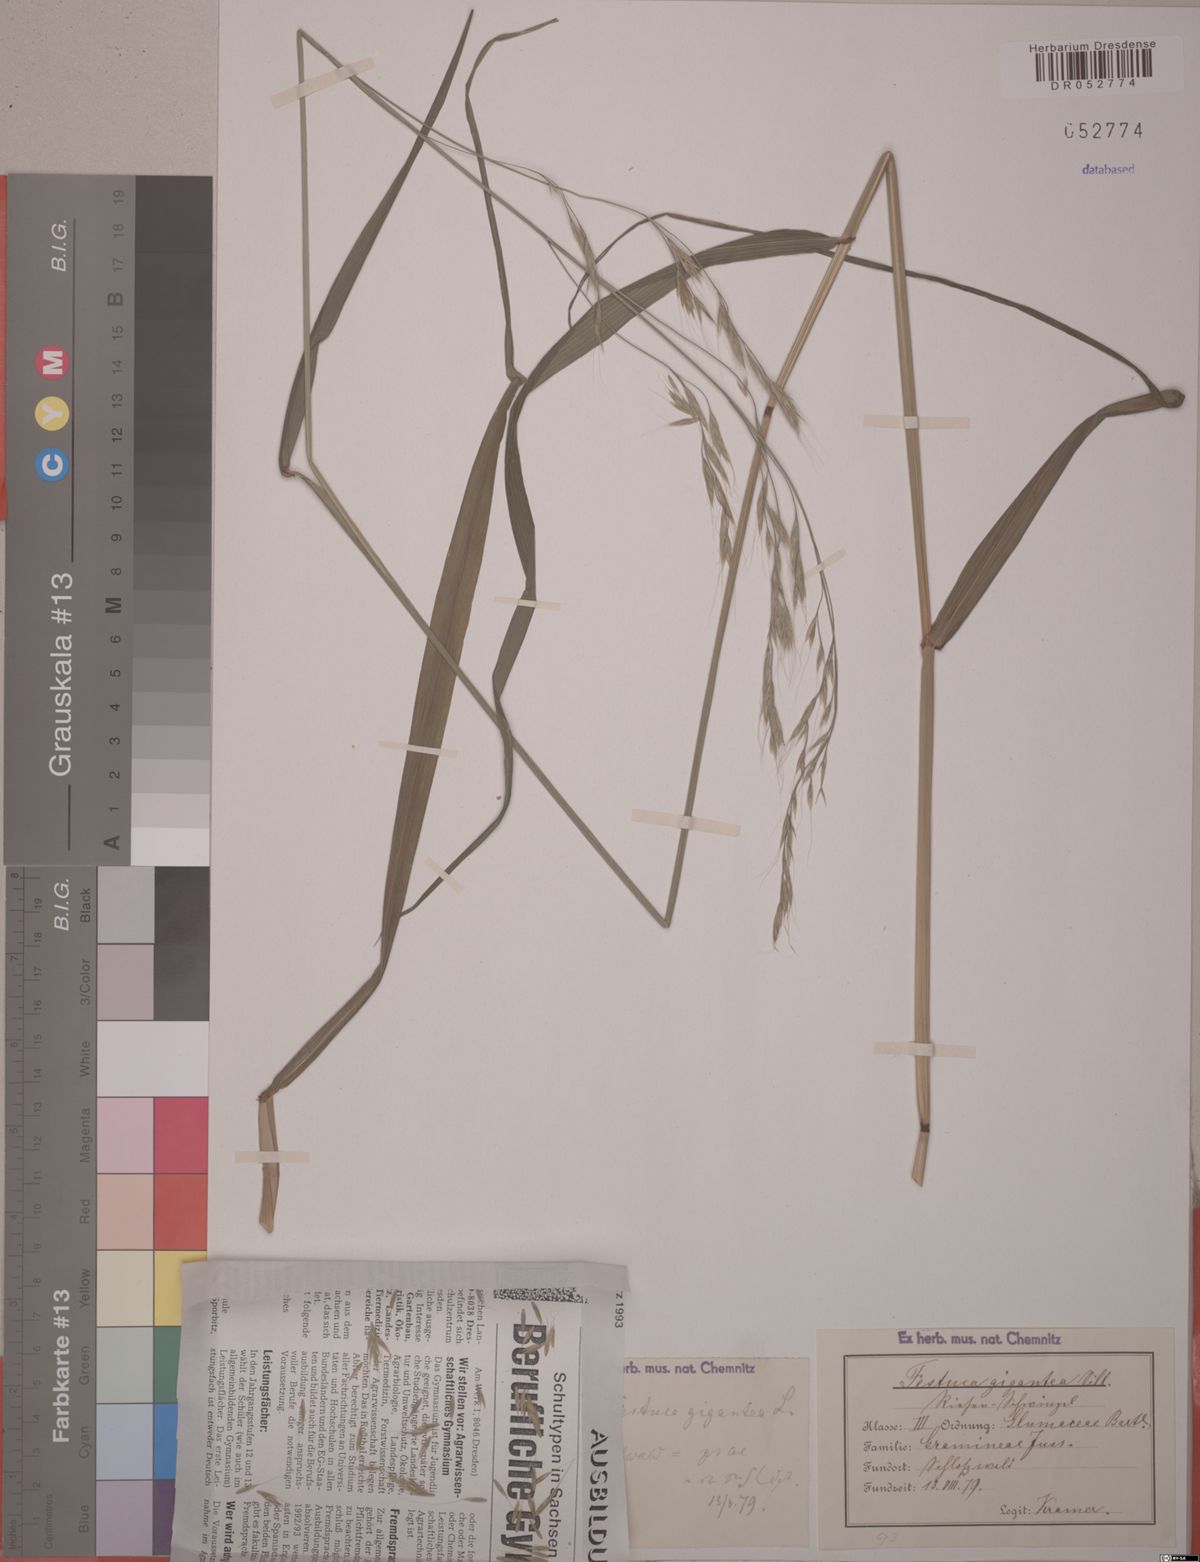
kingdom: Plantae
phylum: Tracheophyta
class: Liliopsida
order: Poales
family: Poaceae
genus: Lolium
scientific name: Lolium giganteum
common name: Giant fescue
